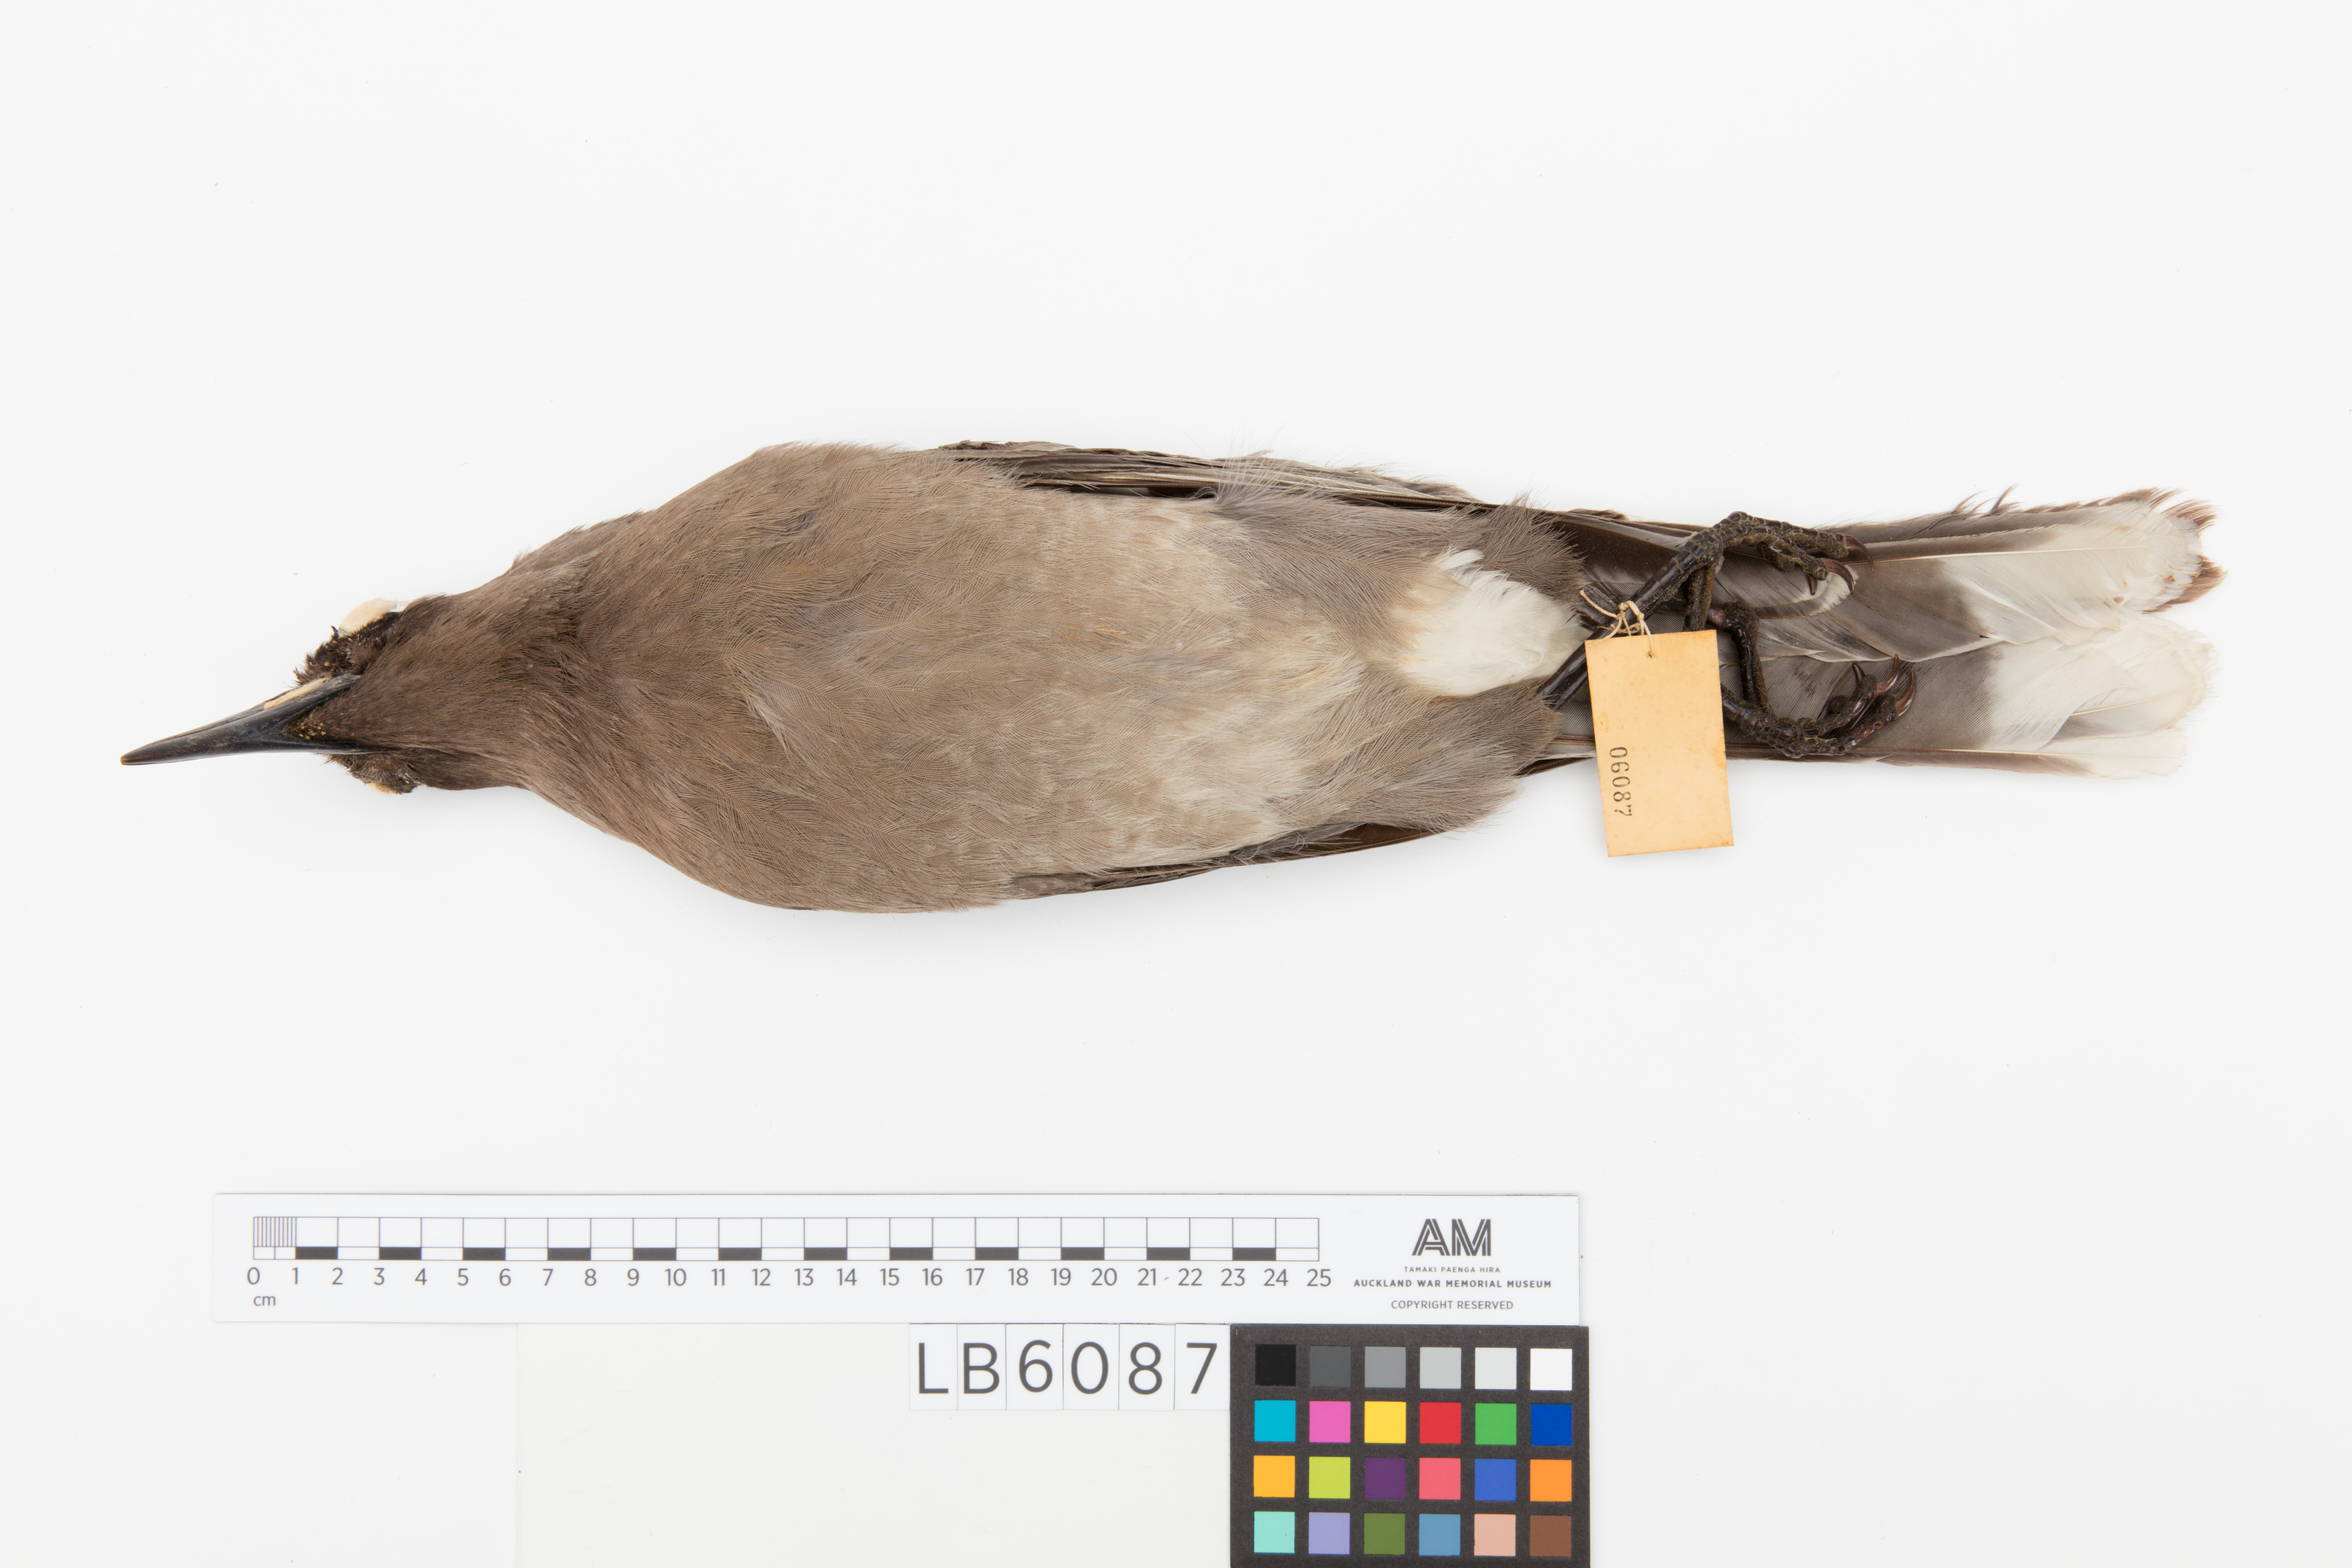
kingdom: Animalia
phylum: Chordata
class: Aves
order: Passeriformes
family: Cracticidae
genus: Strepera
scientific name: Strepera versicolor
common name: Grey currawong
